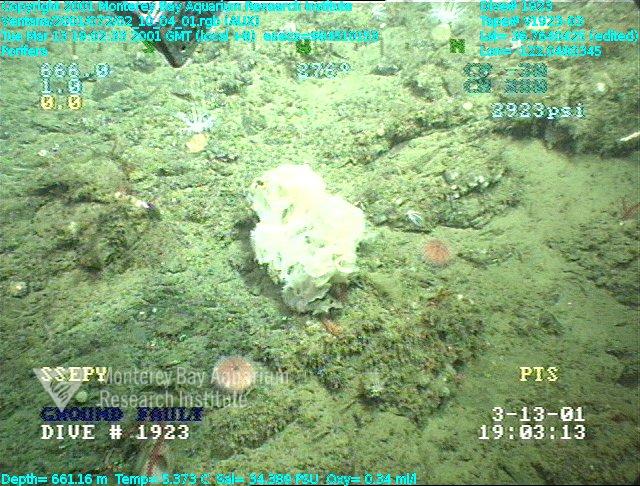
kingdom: Animalia
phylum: Porifera
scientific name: Porifera
